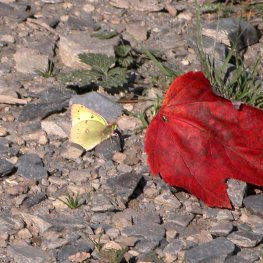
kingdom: Animalia
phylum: Arthropoda
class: Insecta
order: Lepidoptera
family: Pieridae
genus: Colias
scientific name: Colias philodice
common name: Clouded Sulphur
